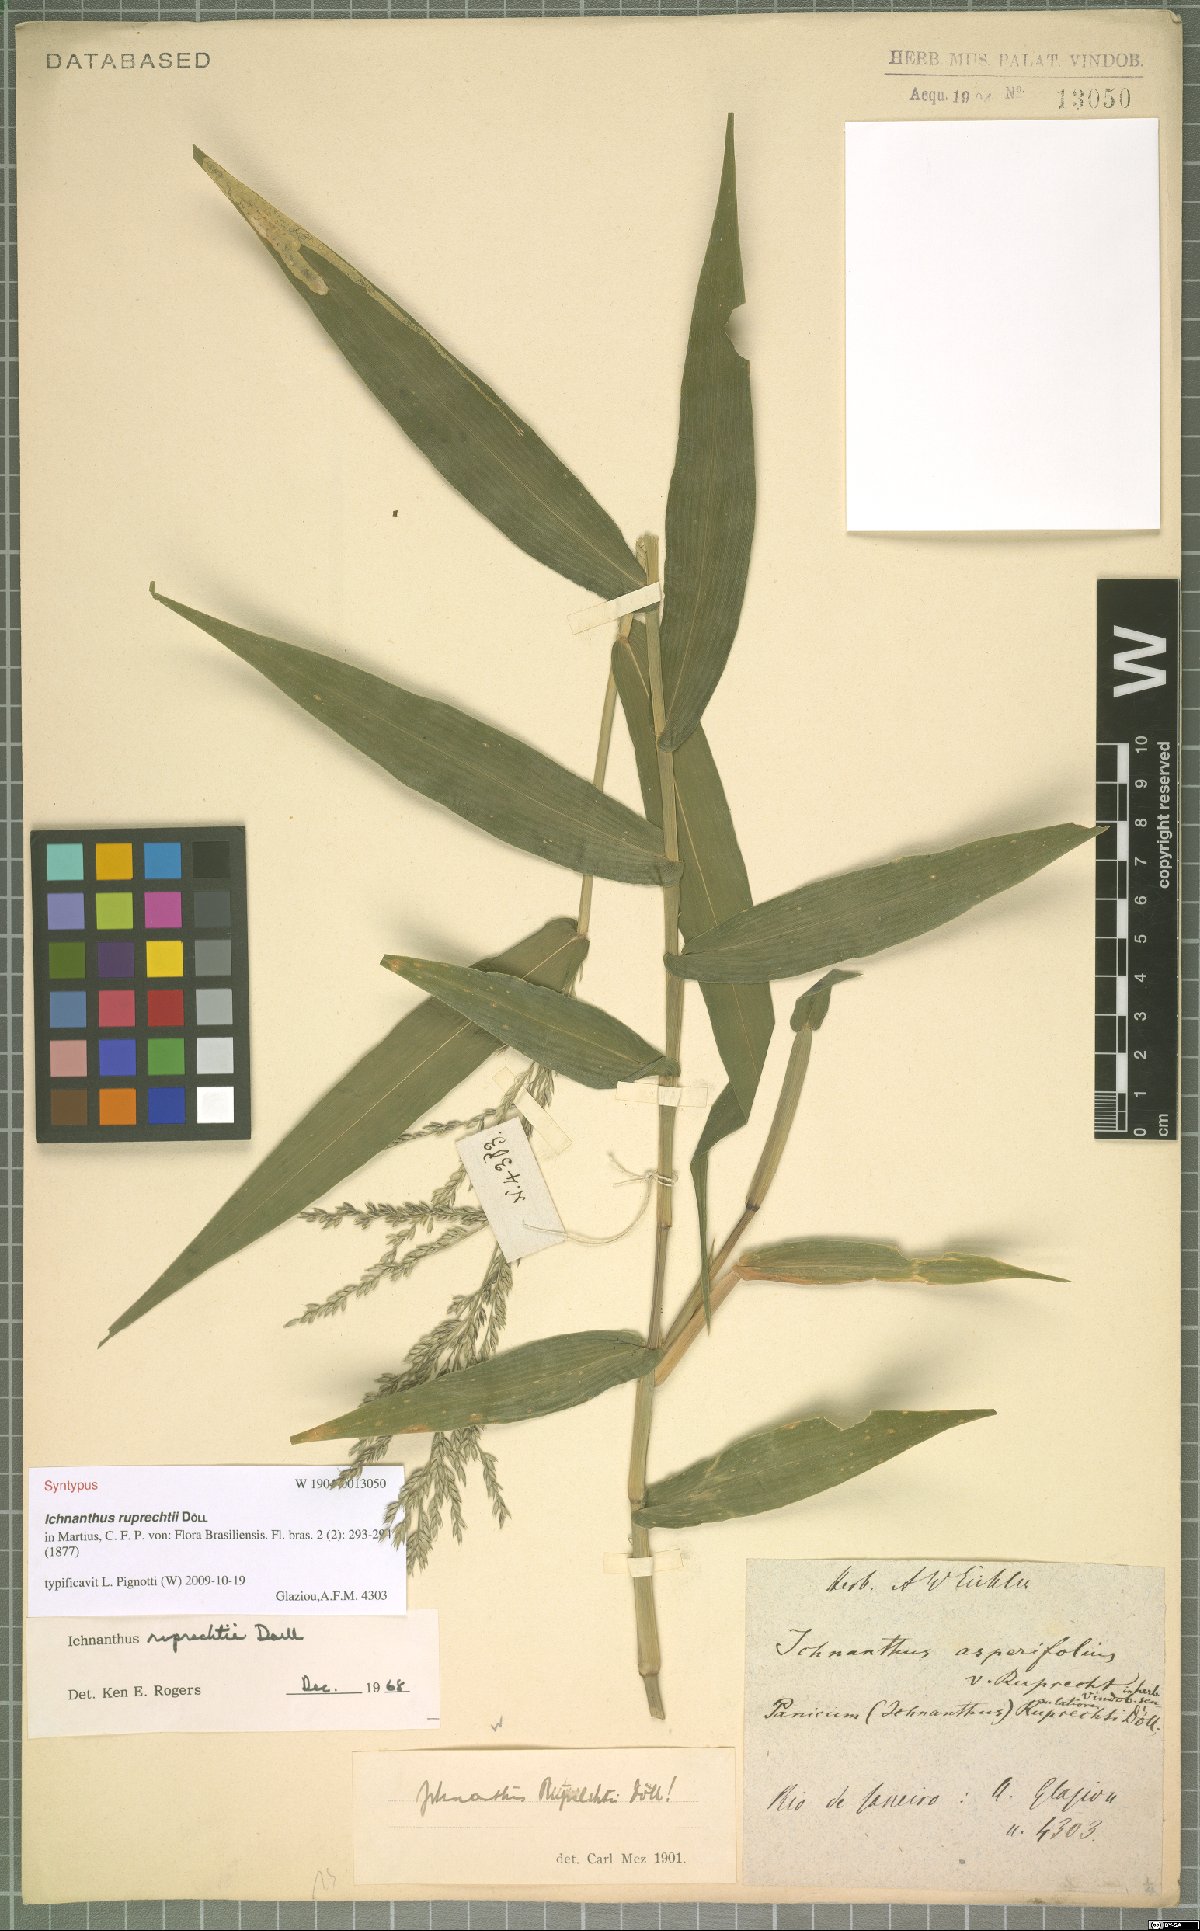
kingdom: Plantae
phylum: Tracheophyta
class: Liliopsida
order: Poales
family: Poaceae
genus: Ichnanthus
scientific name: Ichnanthus ruprechtii
